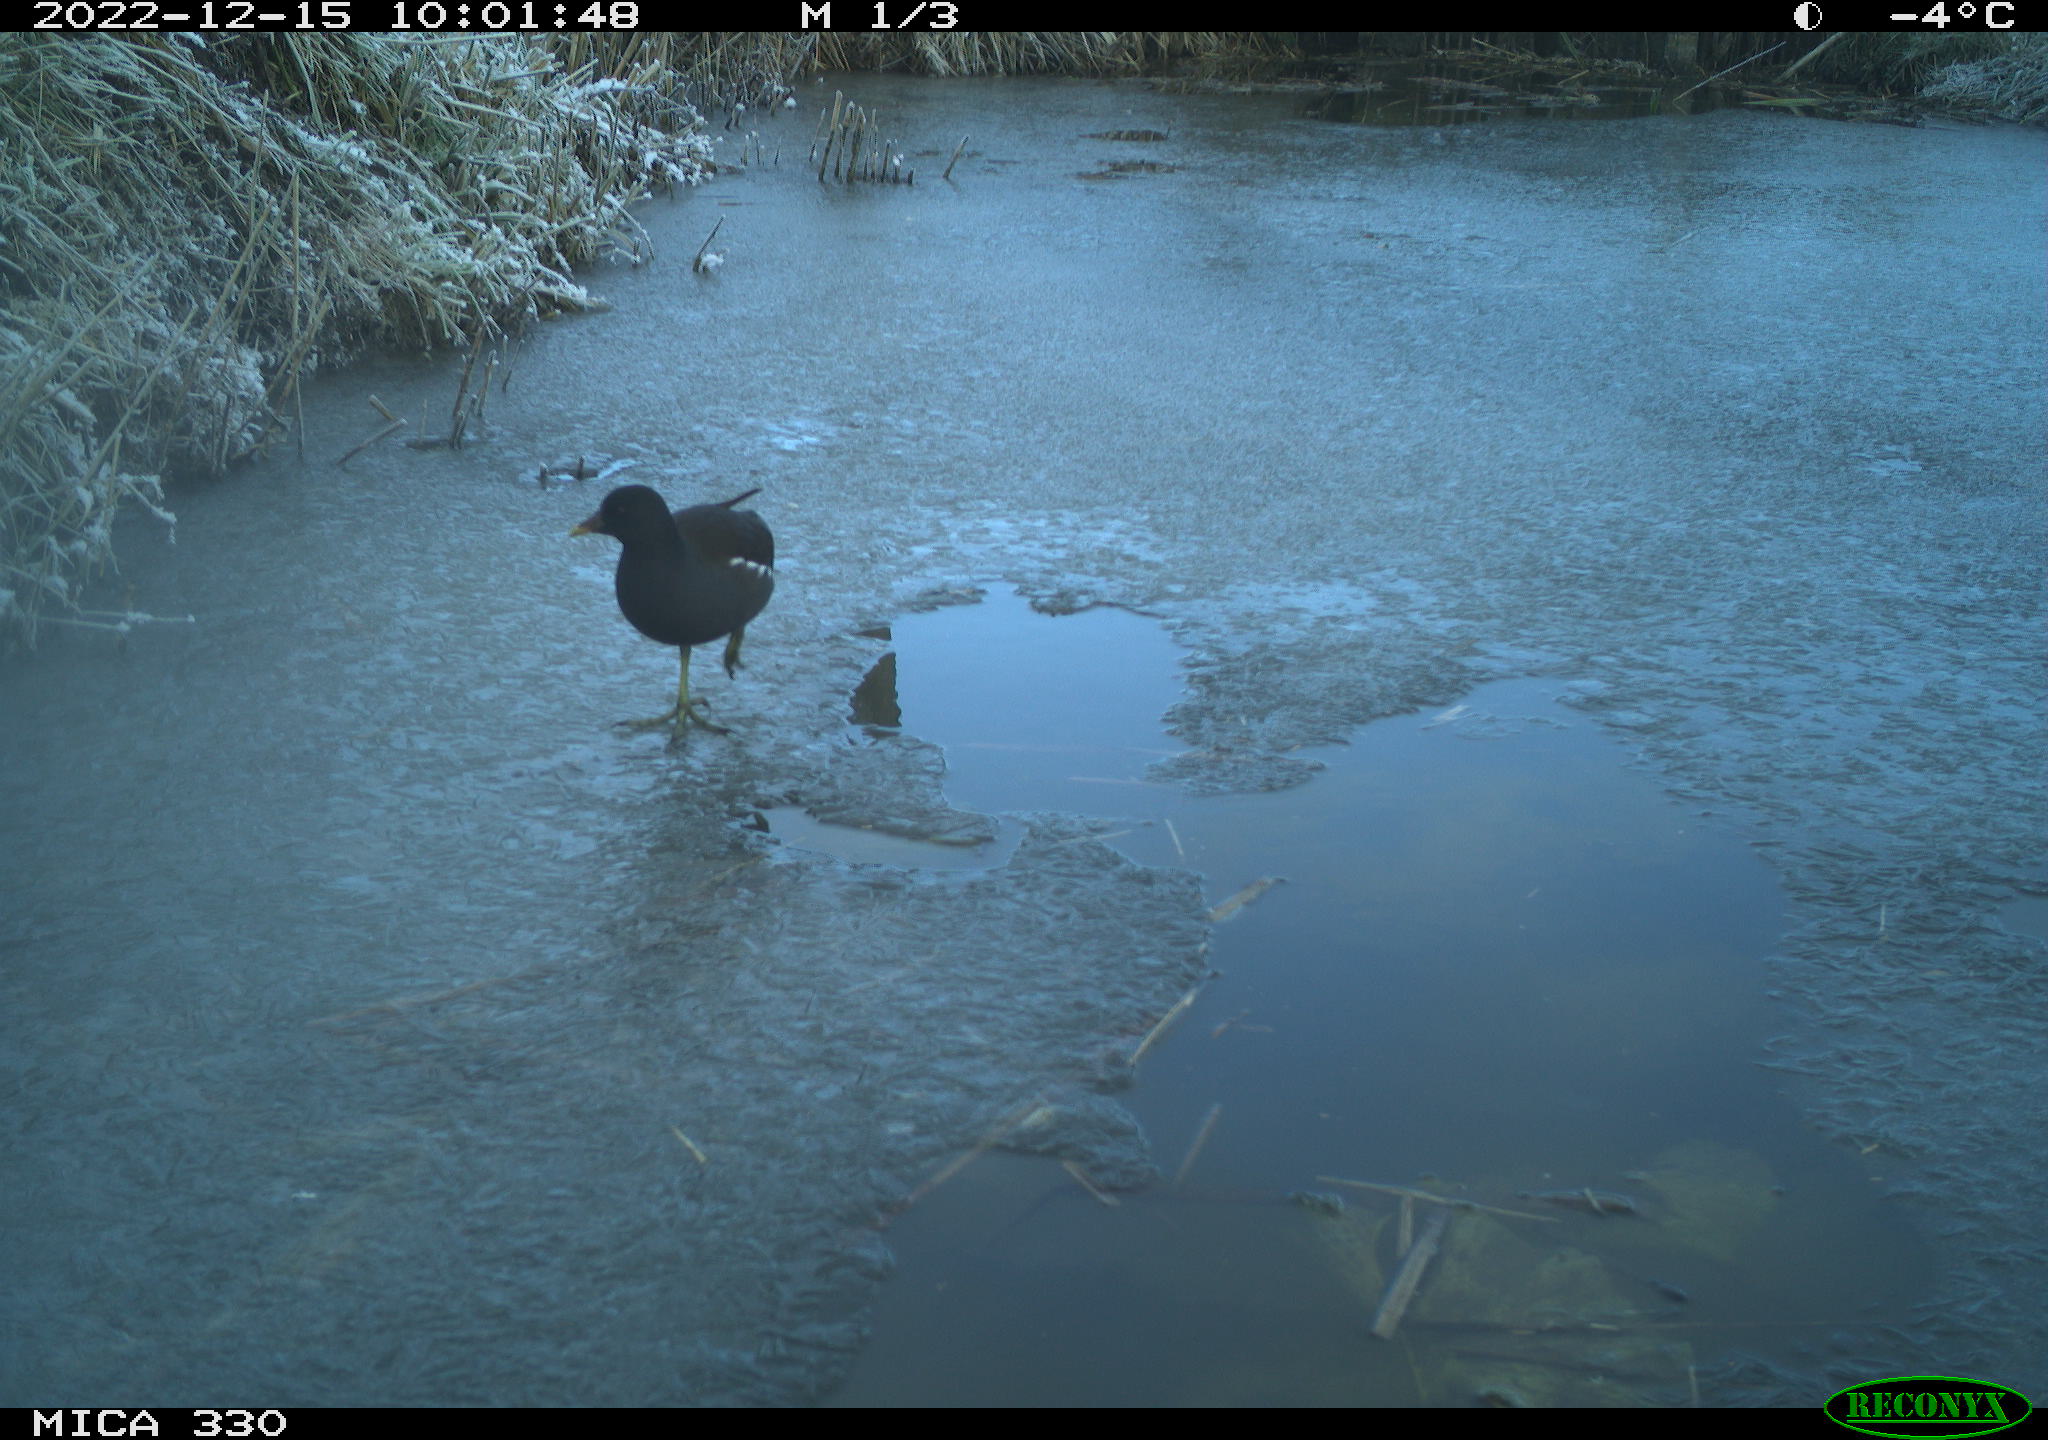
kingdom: Animalia
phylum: Chordata
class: Aves
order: Gruiformes
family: Rallidae
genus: Gallinula
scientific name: Gallinula chloropus
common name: Common moorhen
